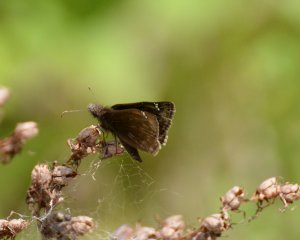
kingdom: Animalia
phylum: Arthropoda
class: Insecta
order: Lepidoptera
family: Hesperiidae
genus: Gesta
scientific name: Gesta
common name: Juvenal's Duskywing
